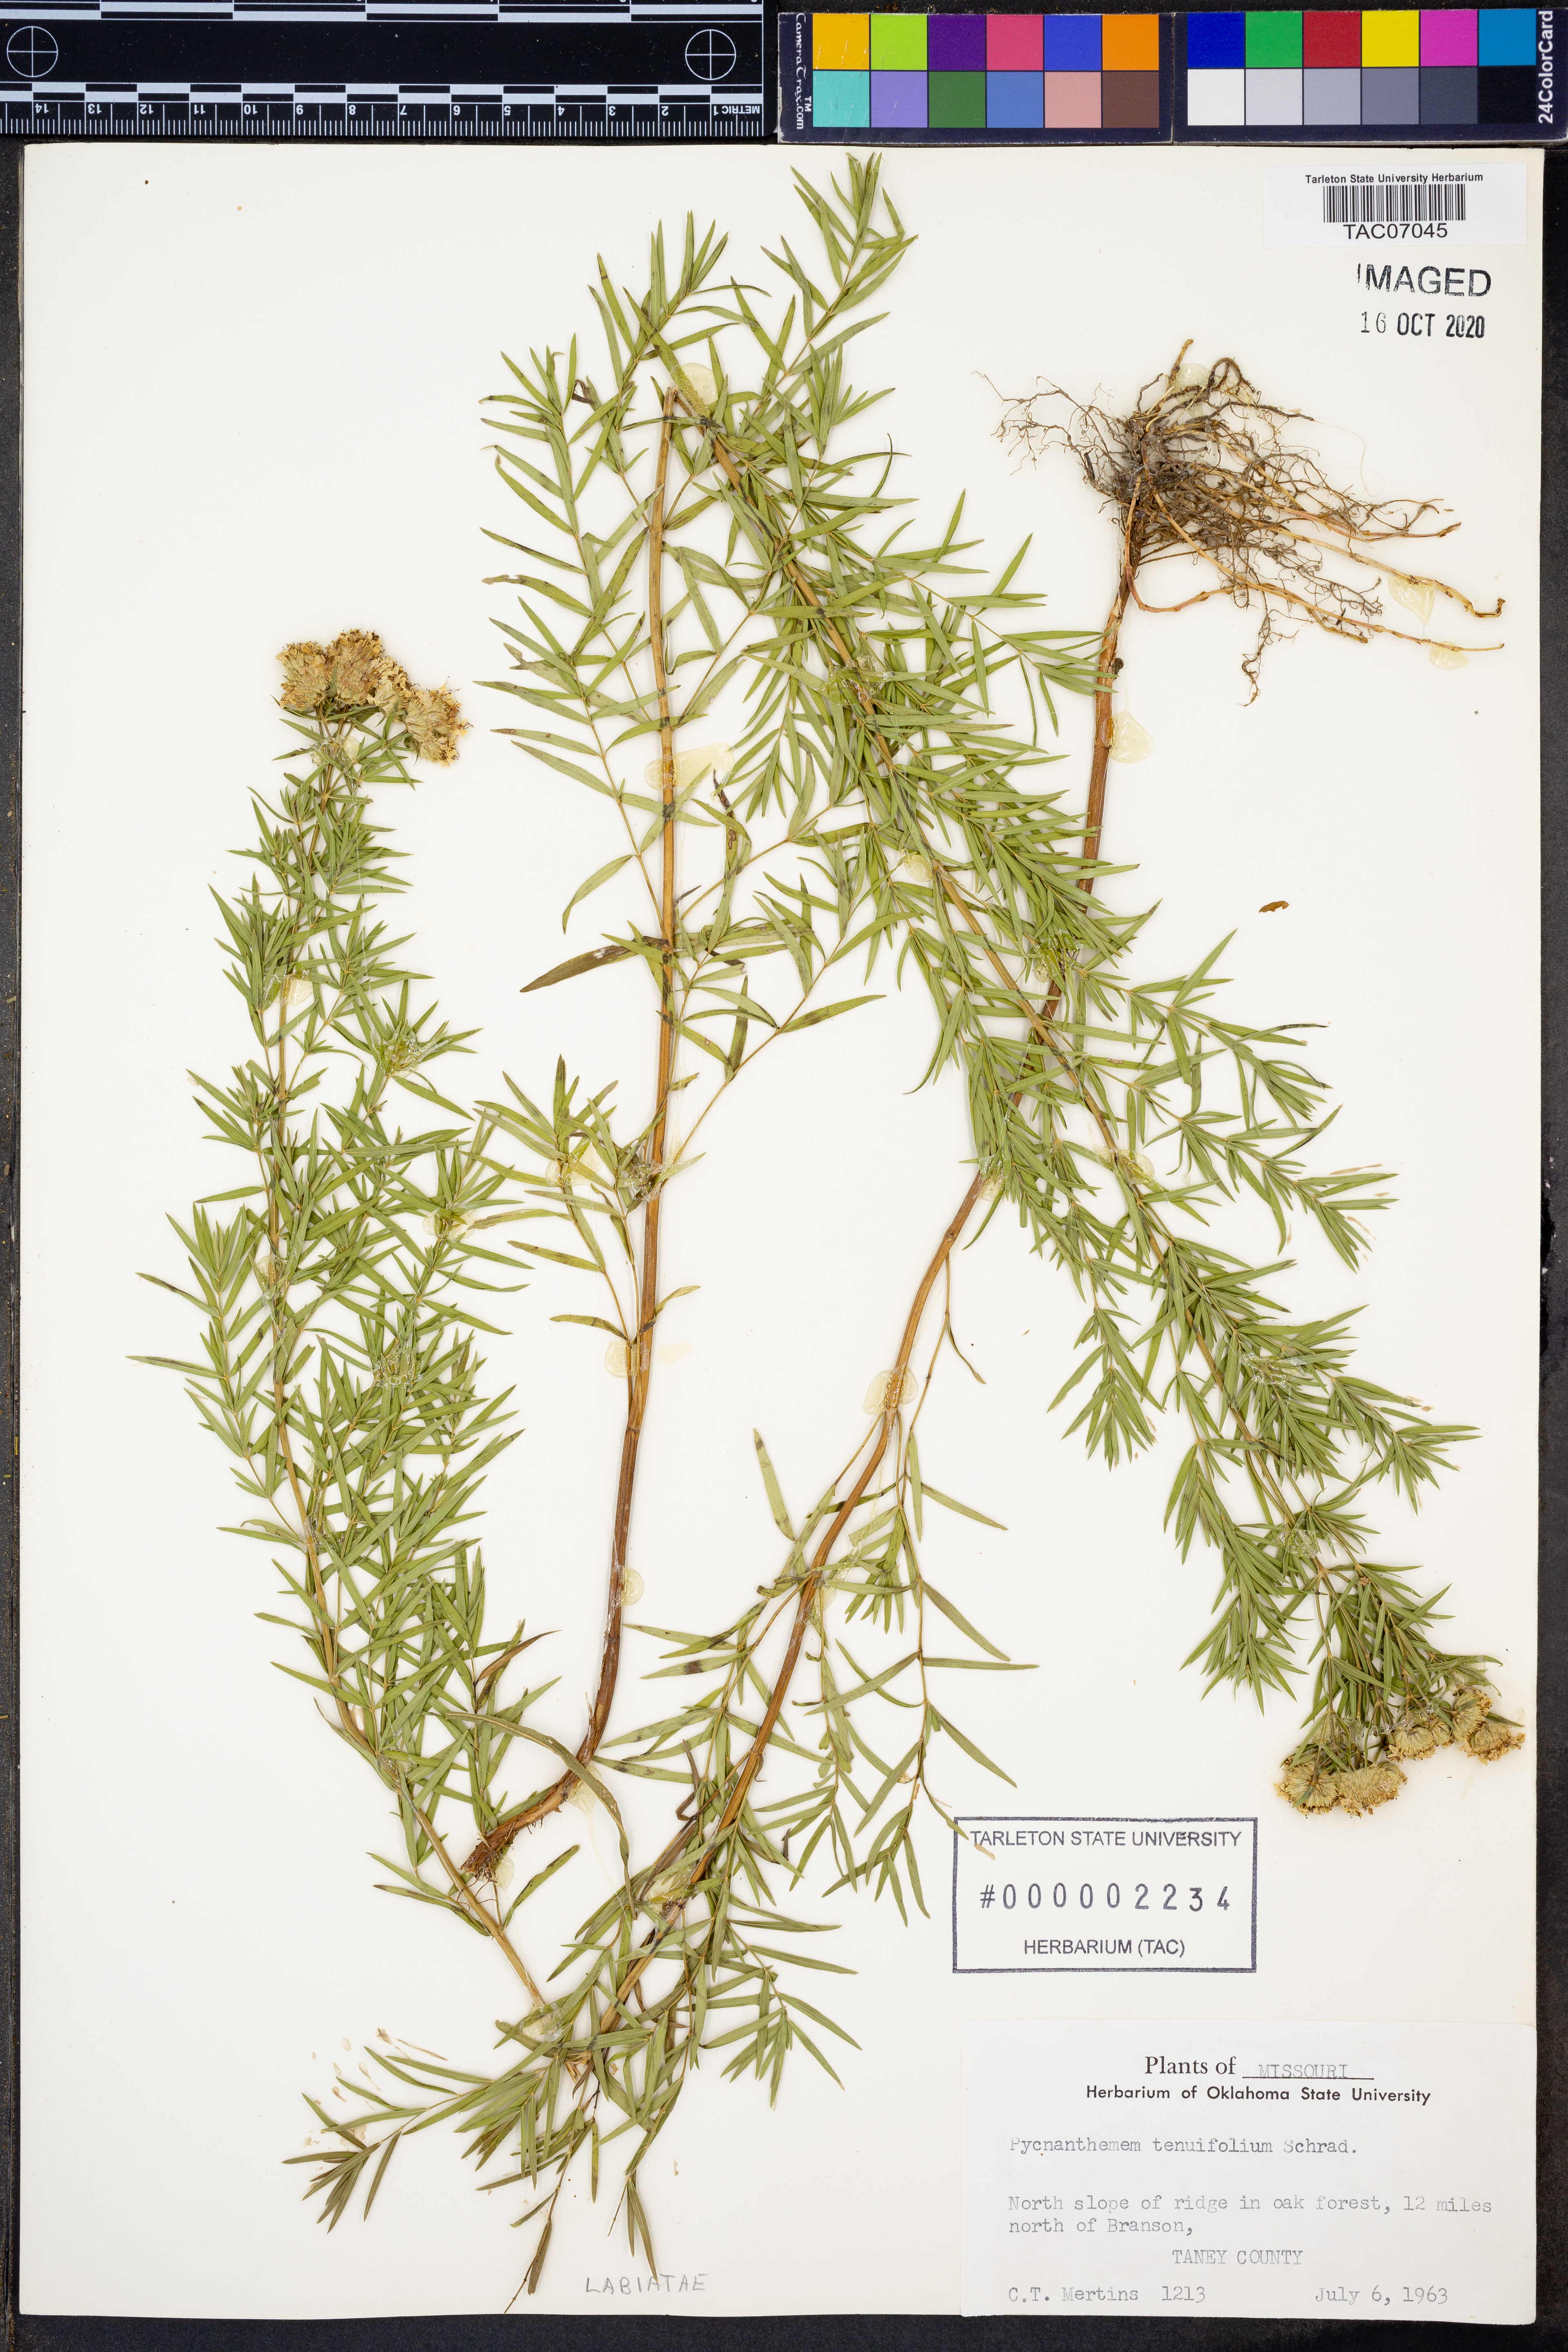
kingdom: Plantae
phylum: Tracheophyta
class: Magnoliopsida
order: Lamiales
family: Lamiaceae
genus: Pycnanthemum
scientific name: Pycnanthemum tenuifolium
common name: Narrow-leaf mountain-mint
